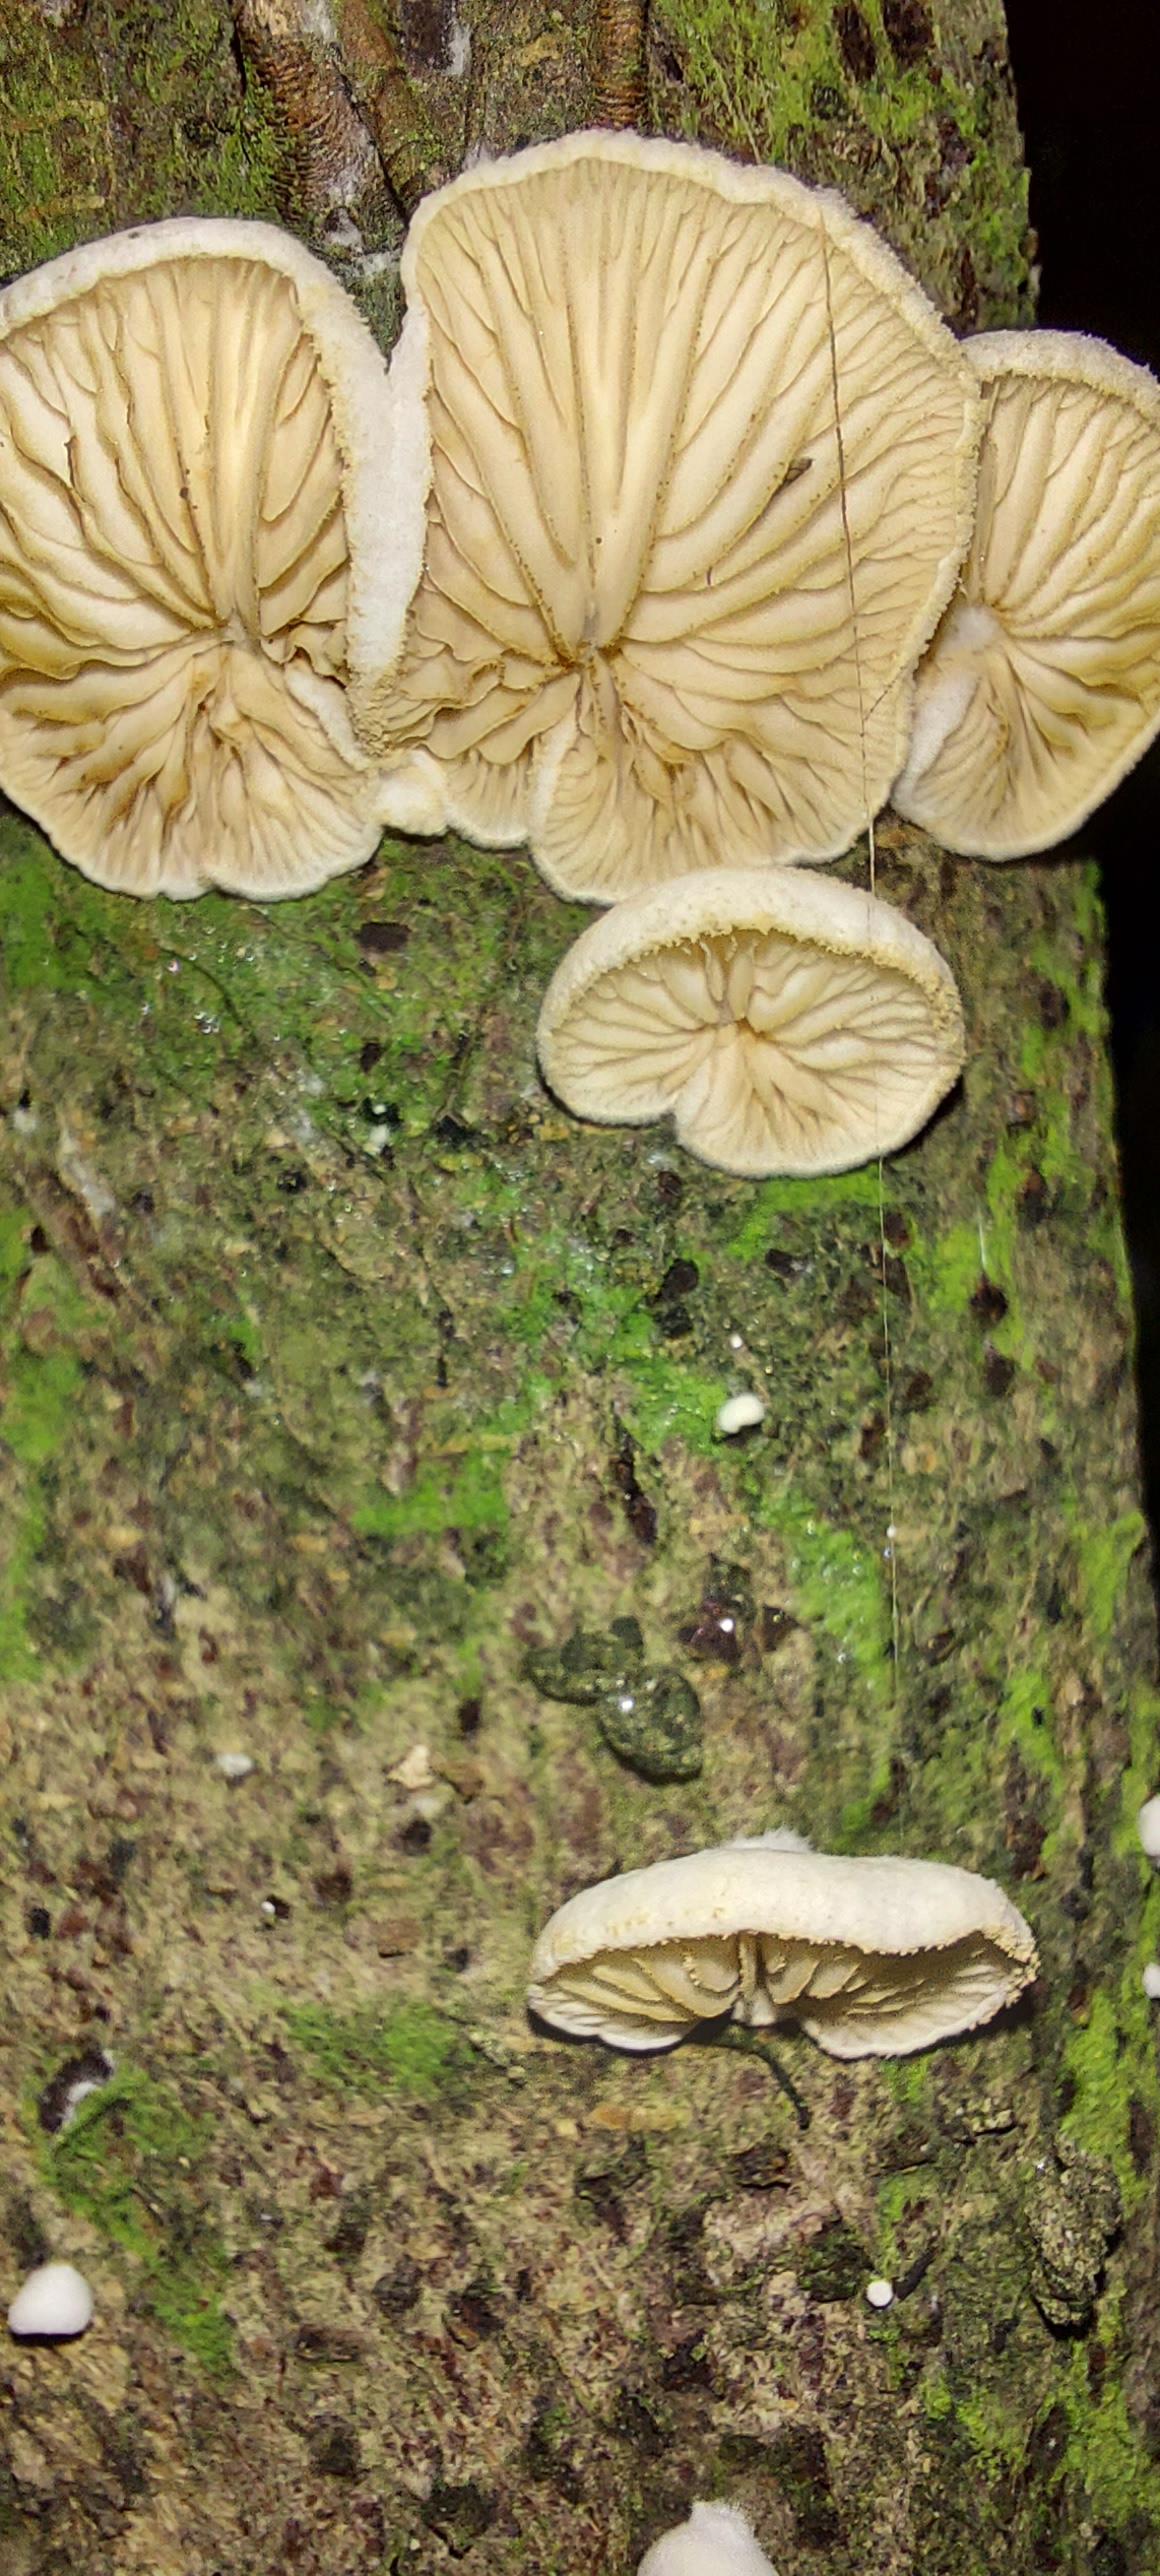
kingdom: Fungi
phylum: Basidiomycota
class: Agaricomycetes
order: Agaricales
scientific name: Agaricales
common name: champignonordenen
